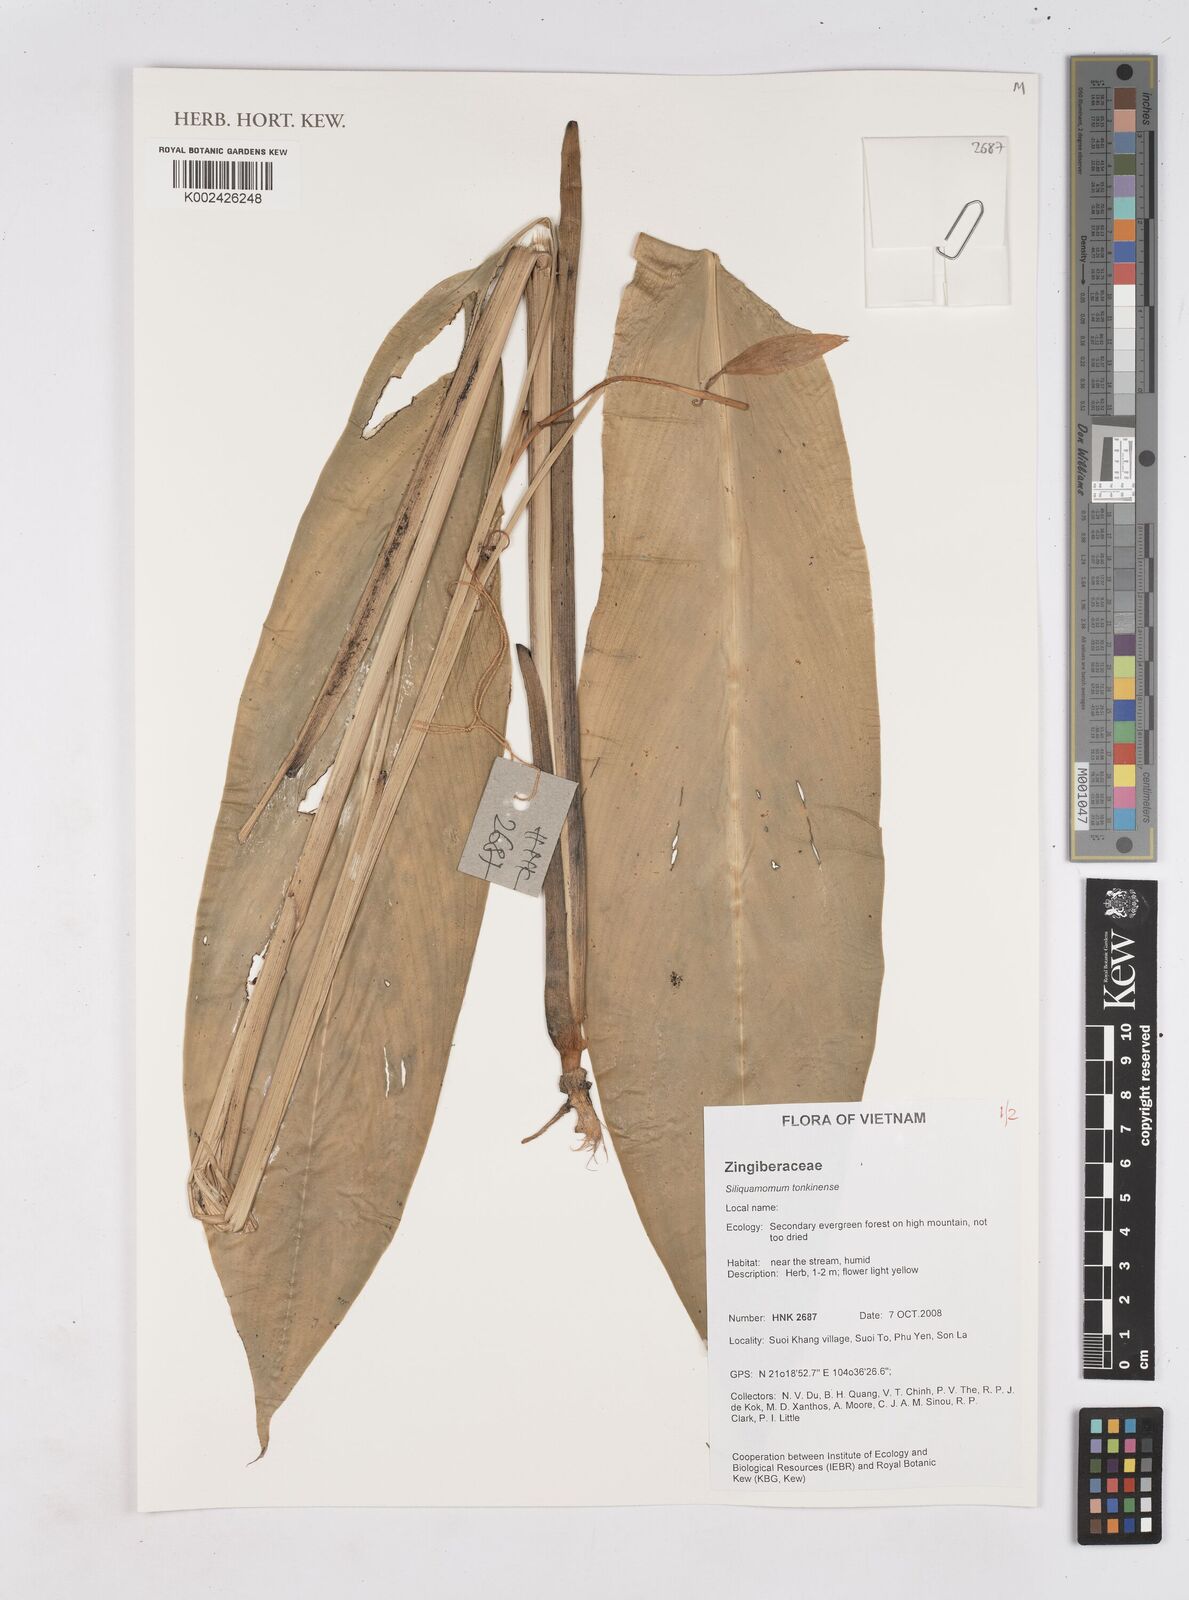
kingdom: Plantae
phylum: Tracheophyta
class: Liliopsida
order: Zingiberales
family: Zingiberaceae
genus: Siliquamomum
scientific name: Siliquamomum tonkinense
